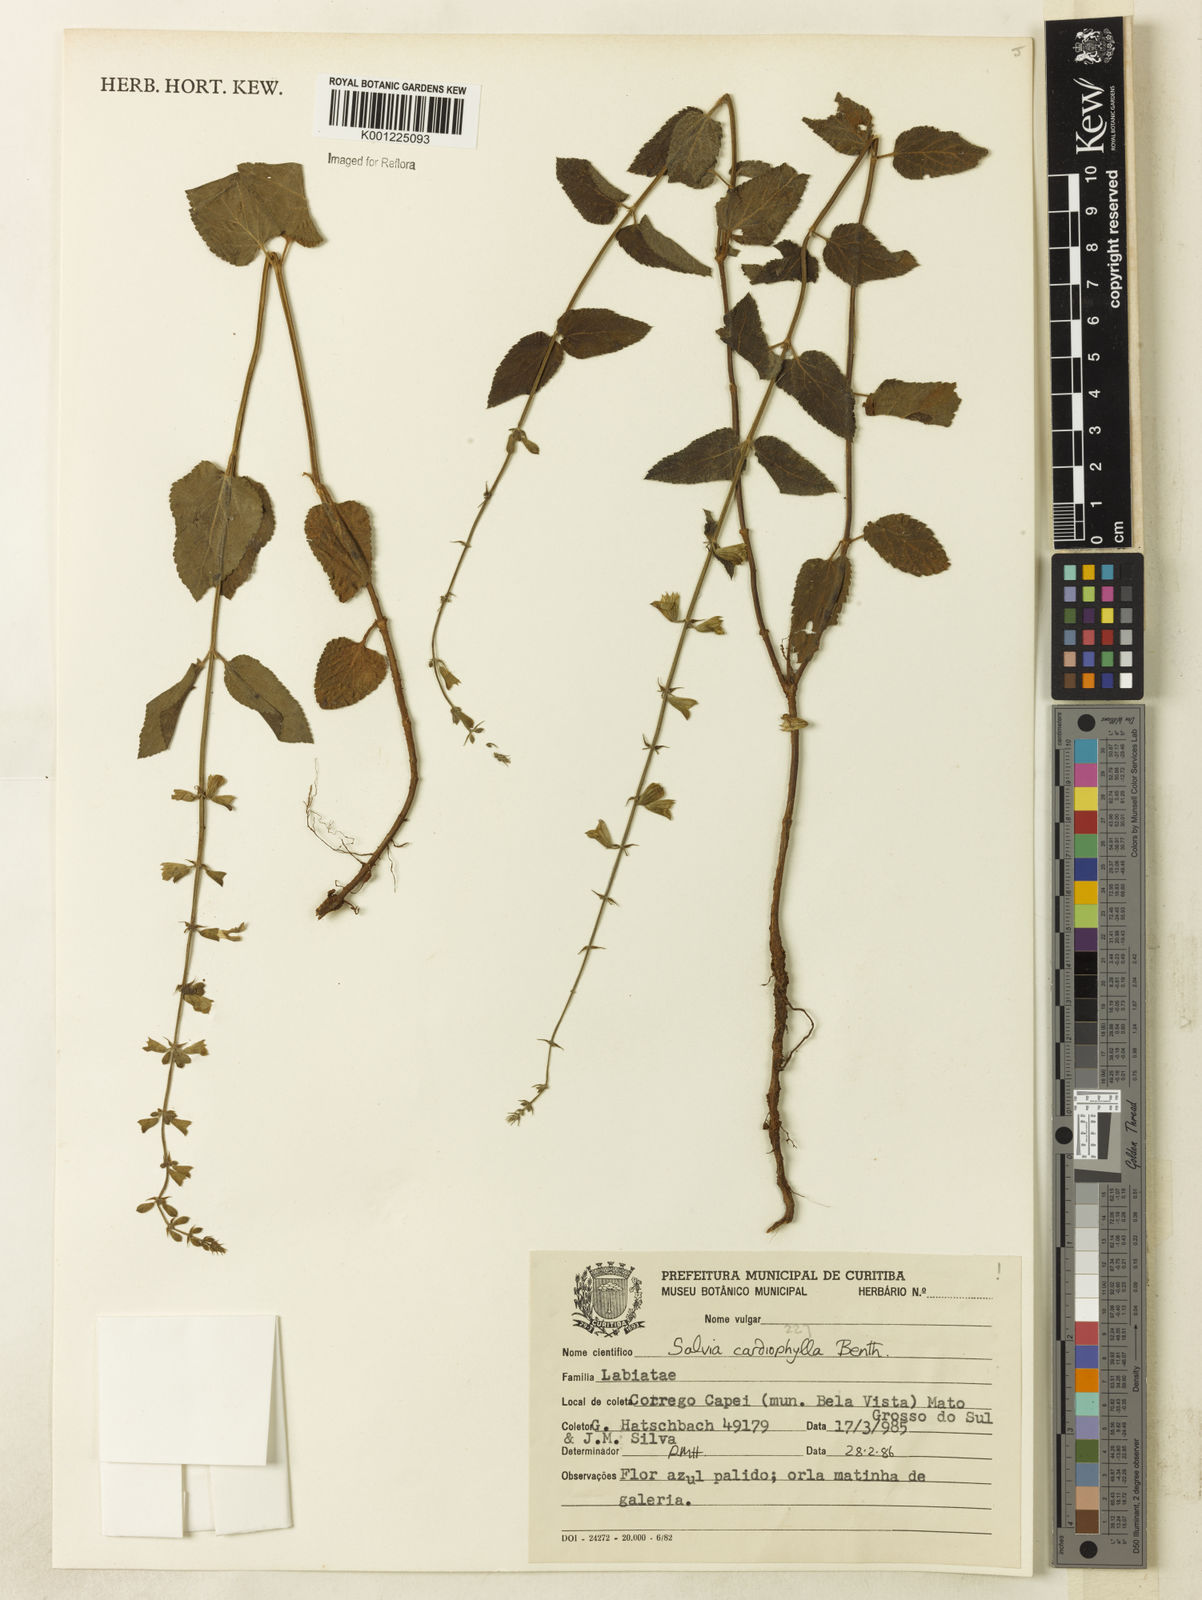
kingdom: Plantae
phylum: Tracheophyta
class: Magnoliopsida
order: Lamiales
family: Lamiaceae
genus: Salvia
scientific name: Salvia cardiophylla
